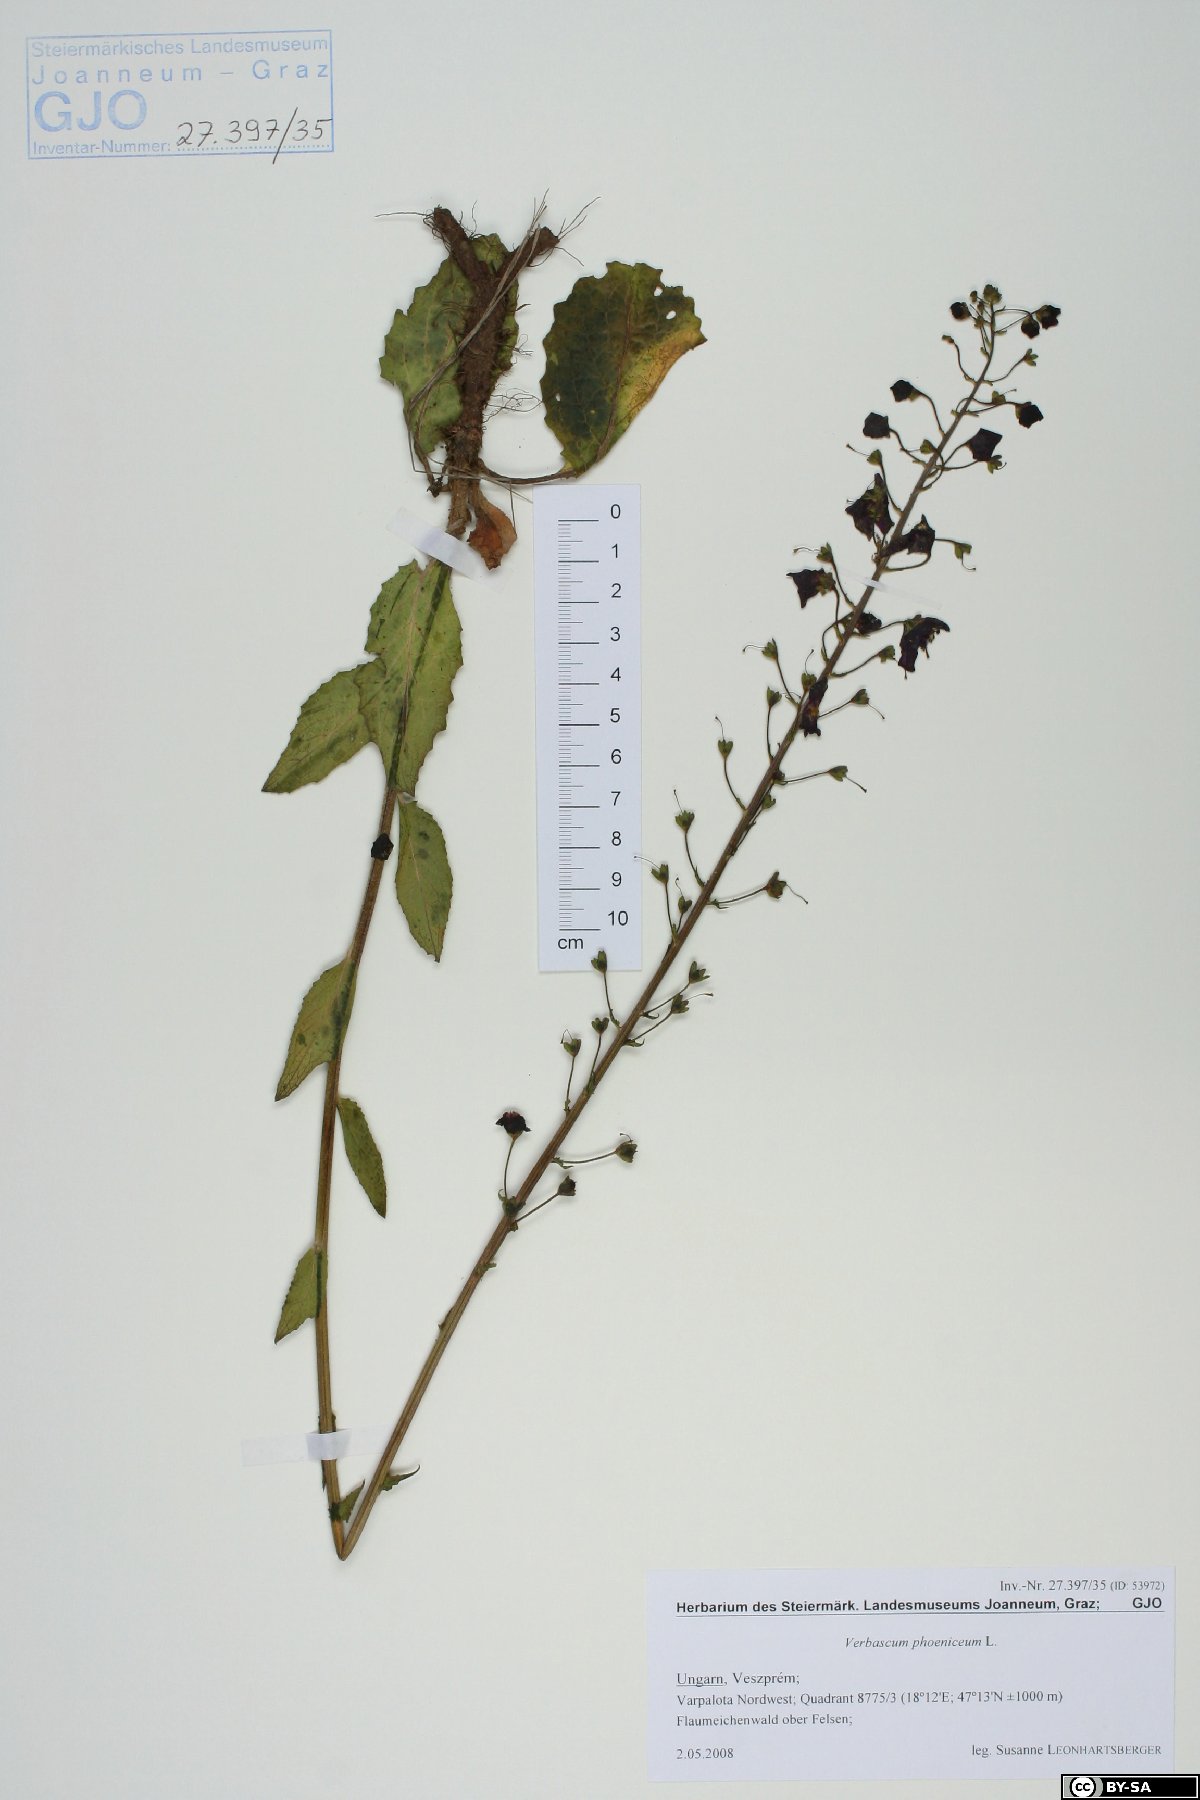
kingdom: Plantae
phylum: Tracheophyta
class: Magnoliopsida
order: Lamiales
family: Scrophulariaceae
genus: Verbascum
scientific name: Verbascum phoeniceum
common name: Purple mullein
